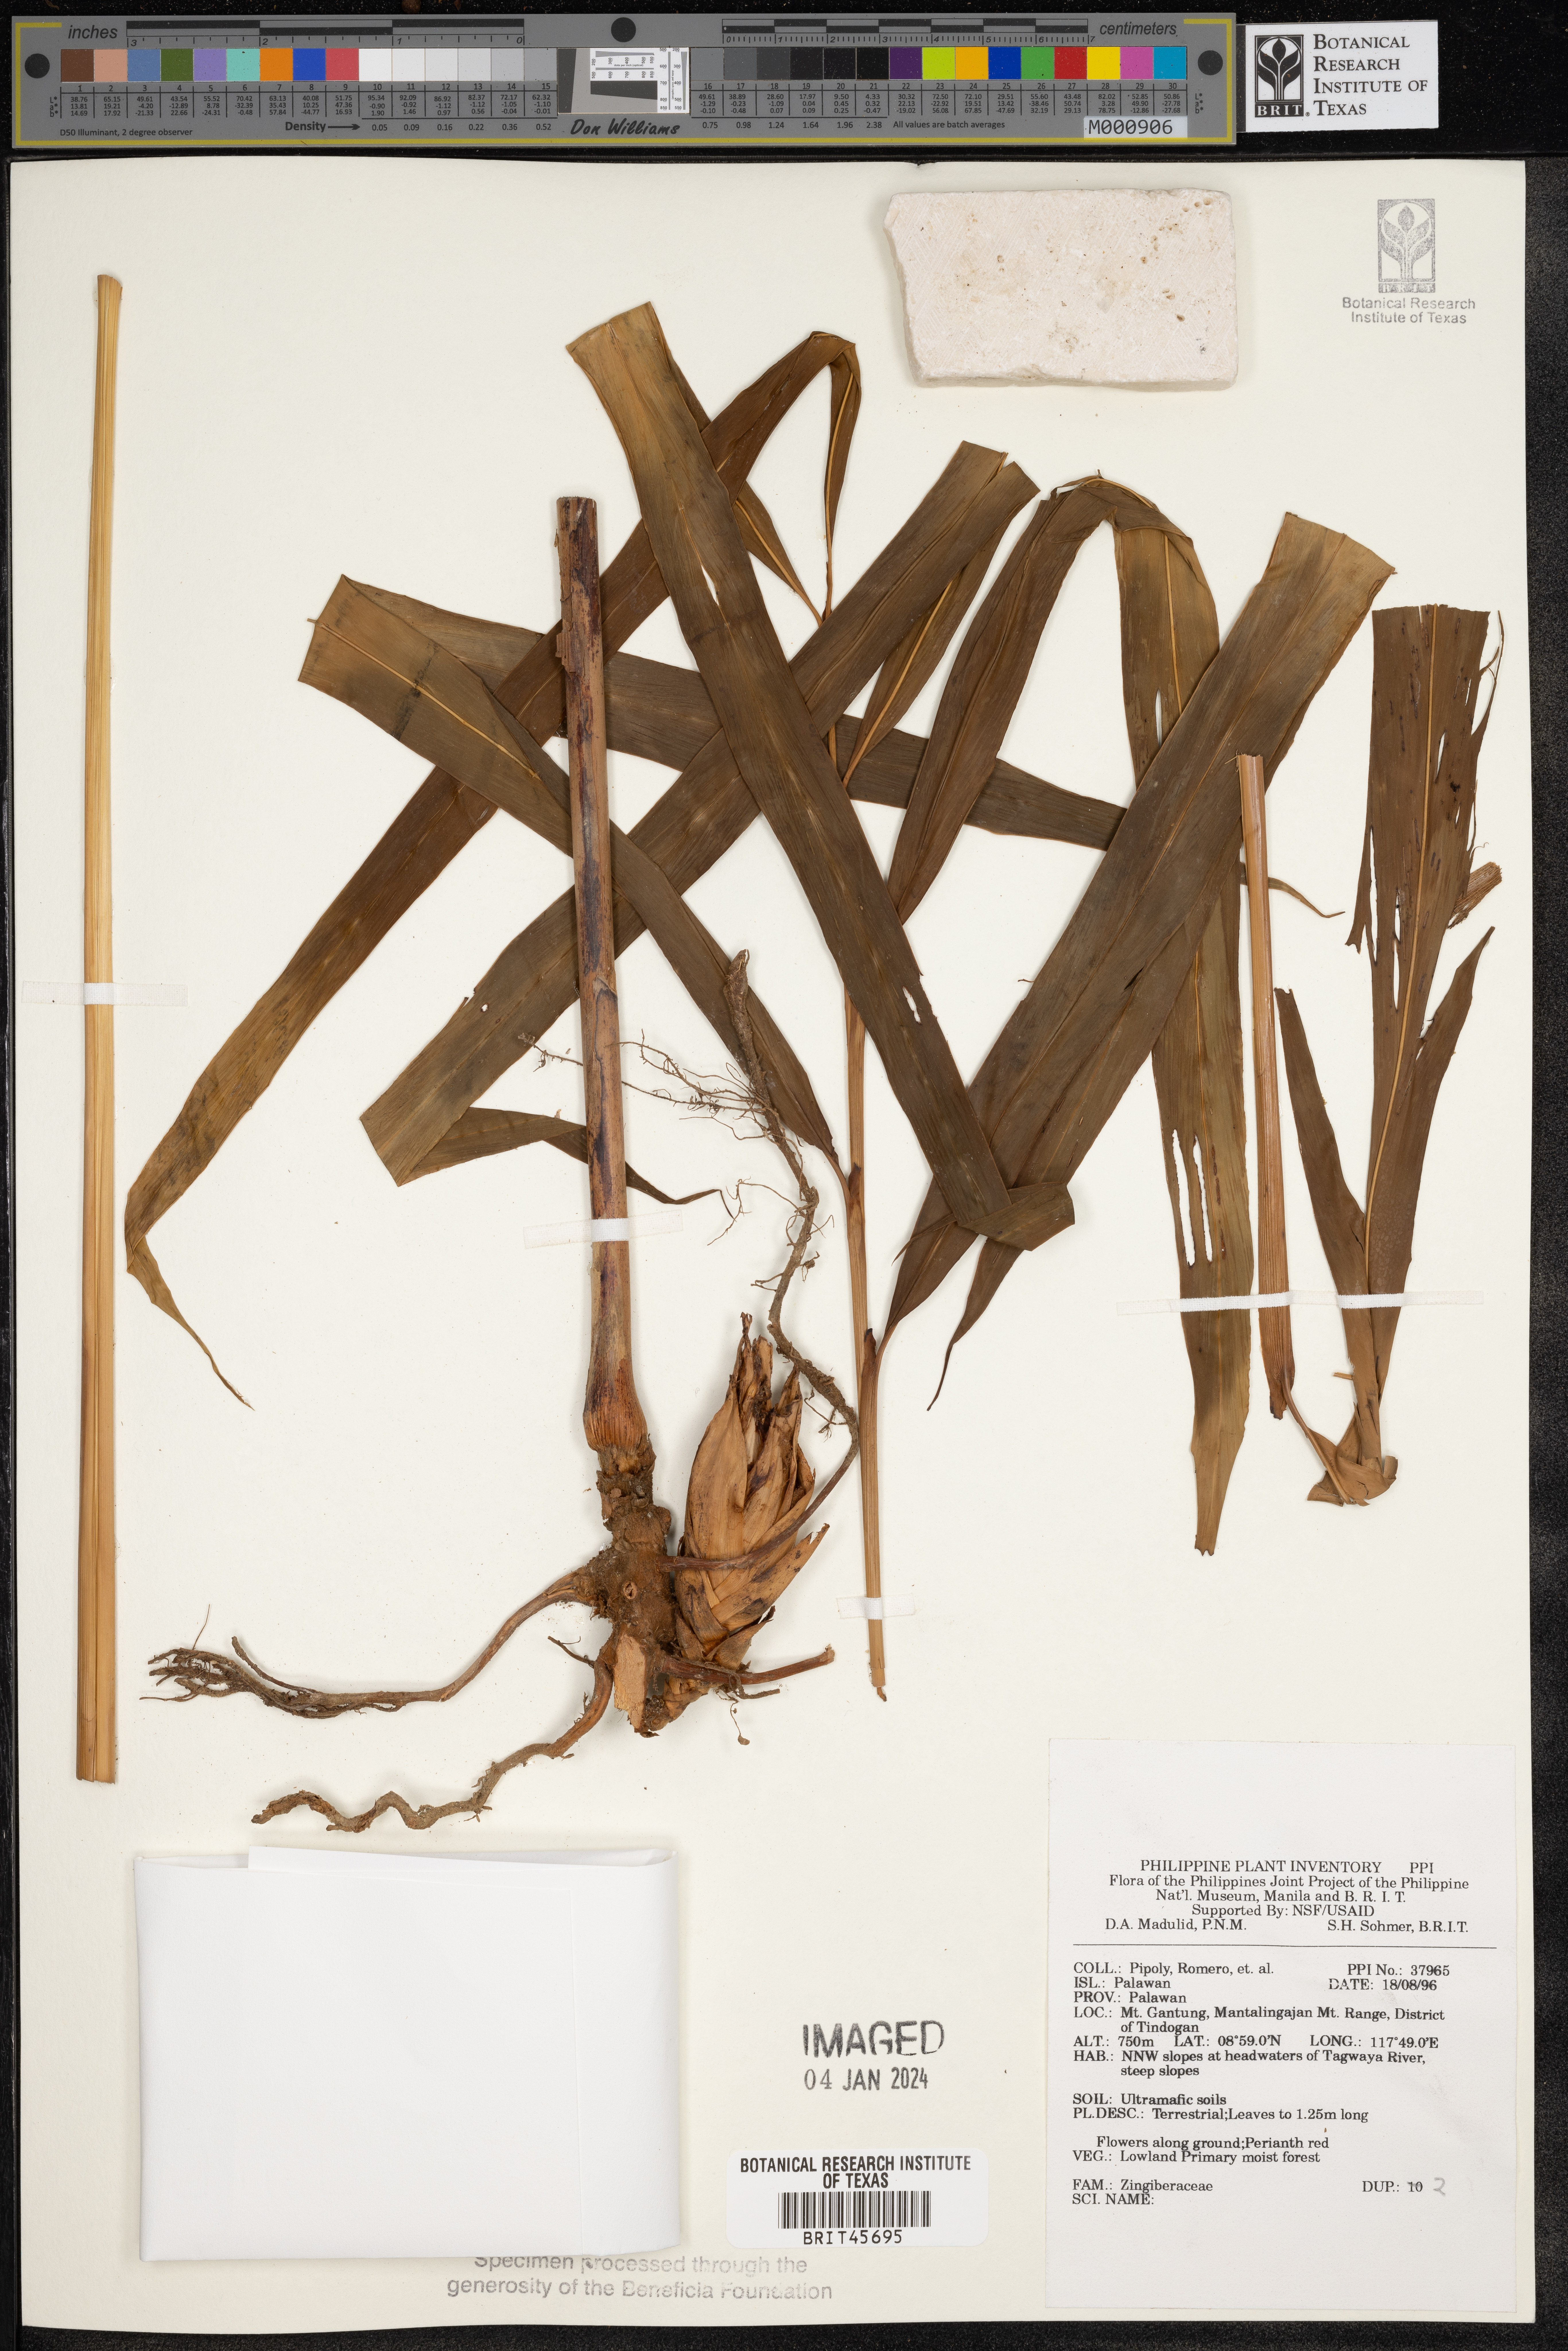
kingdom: Plantae
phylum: Tracheophyta
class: Liliopsida
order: Zingiberales
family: Zingiberaceae
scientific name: Zingiberaceae
